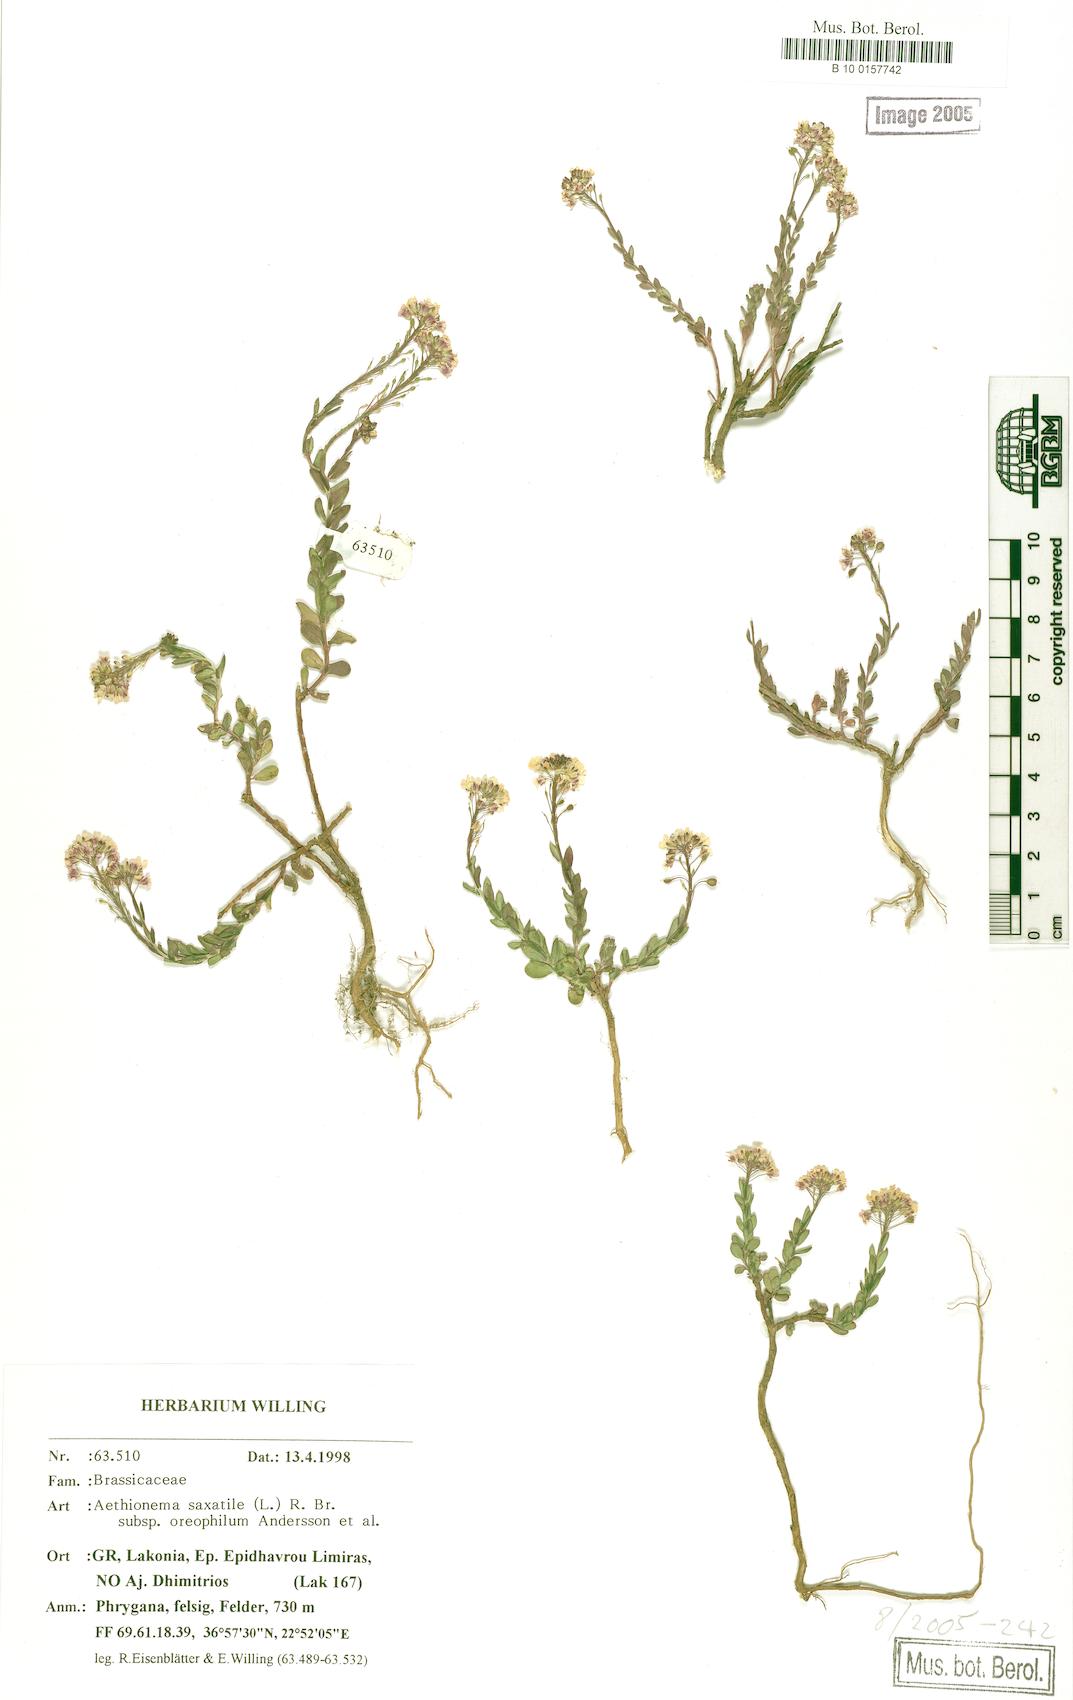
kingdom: Plantae
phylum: Tracheophyta
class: Magnoliopsida
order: Brassicales
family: Brassicaceae
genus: Aethionema
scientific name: Aethionema saxatile
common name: Burnt candytuft
